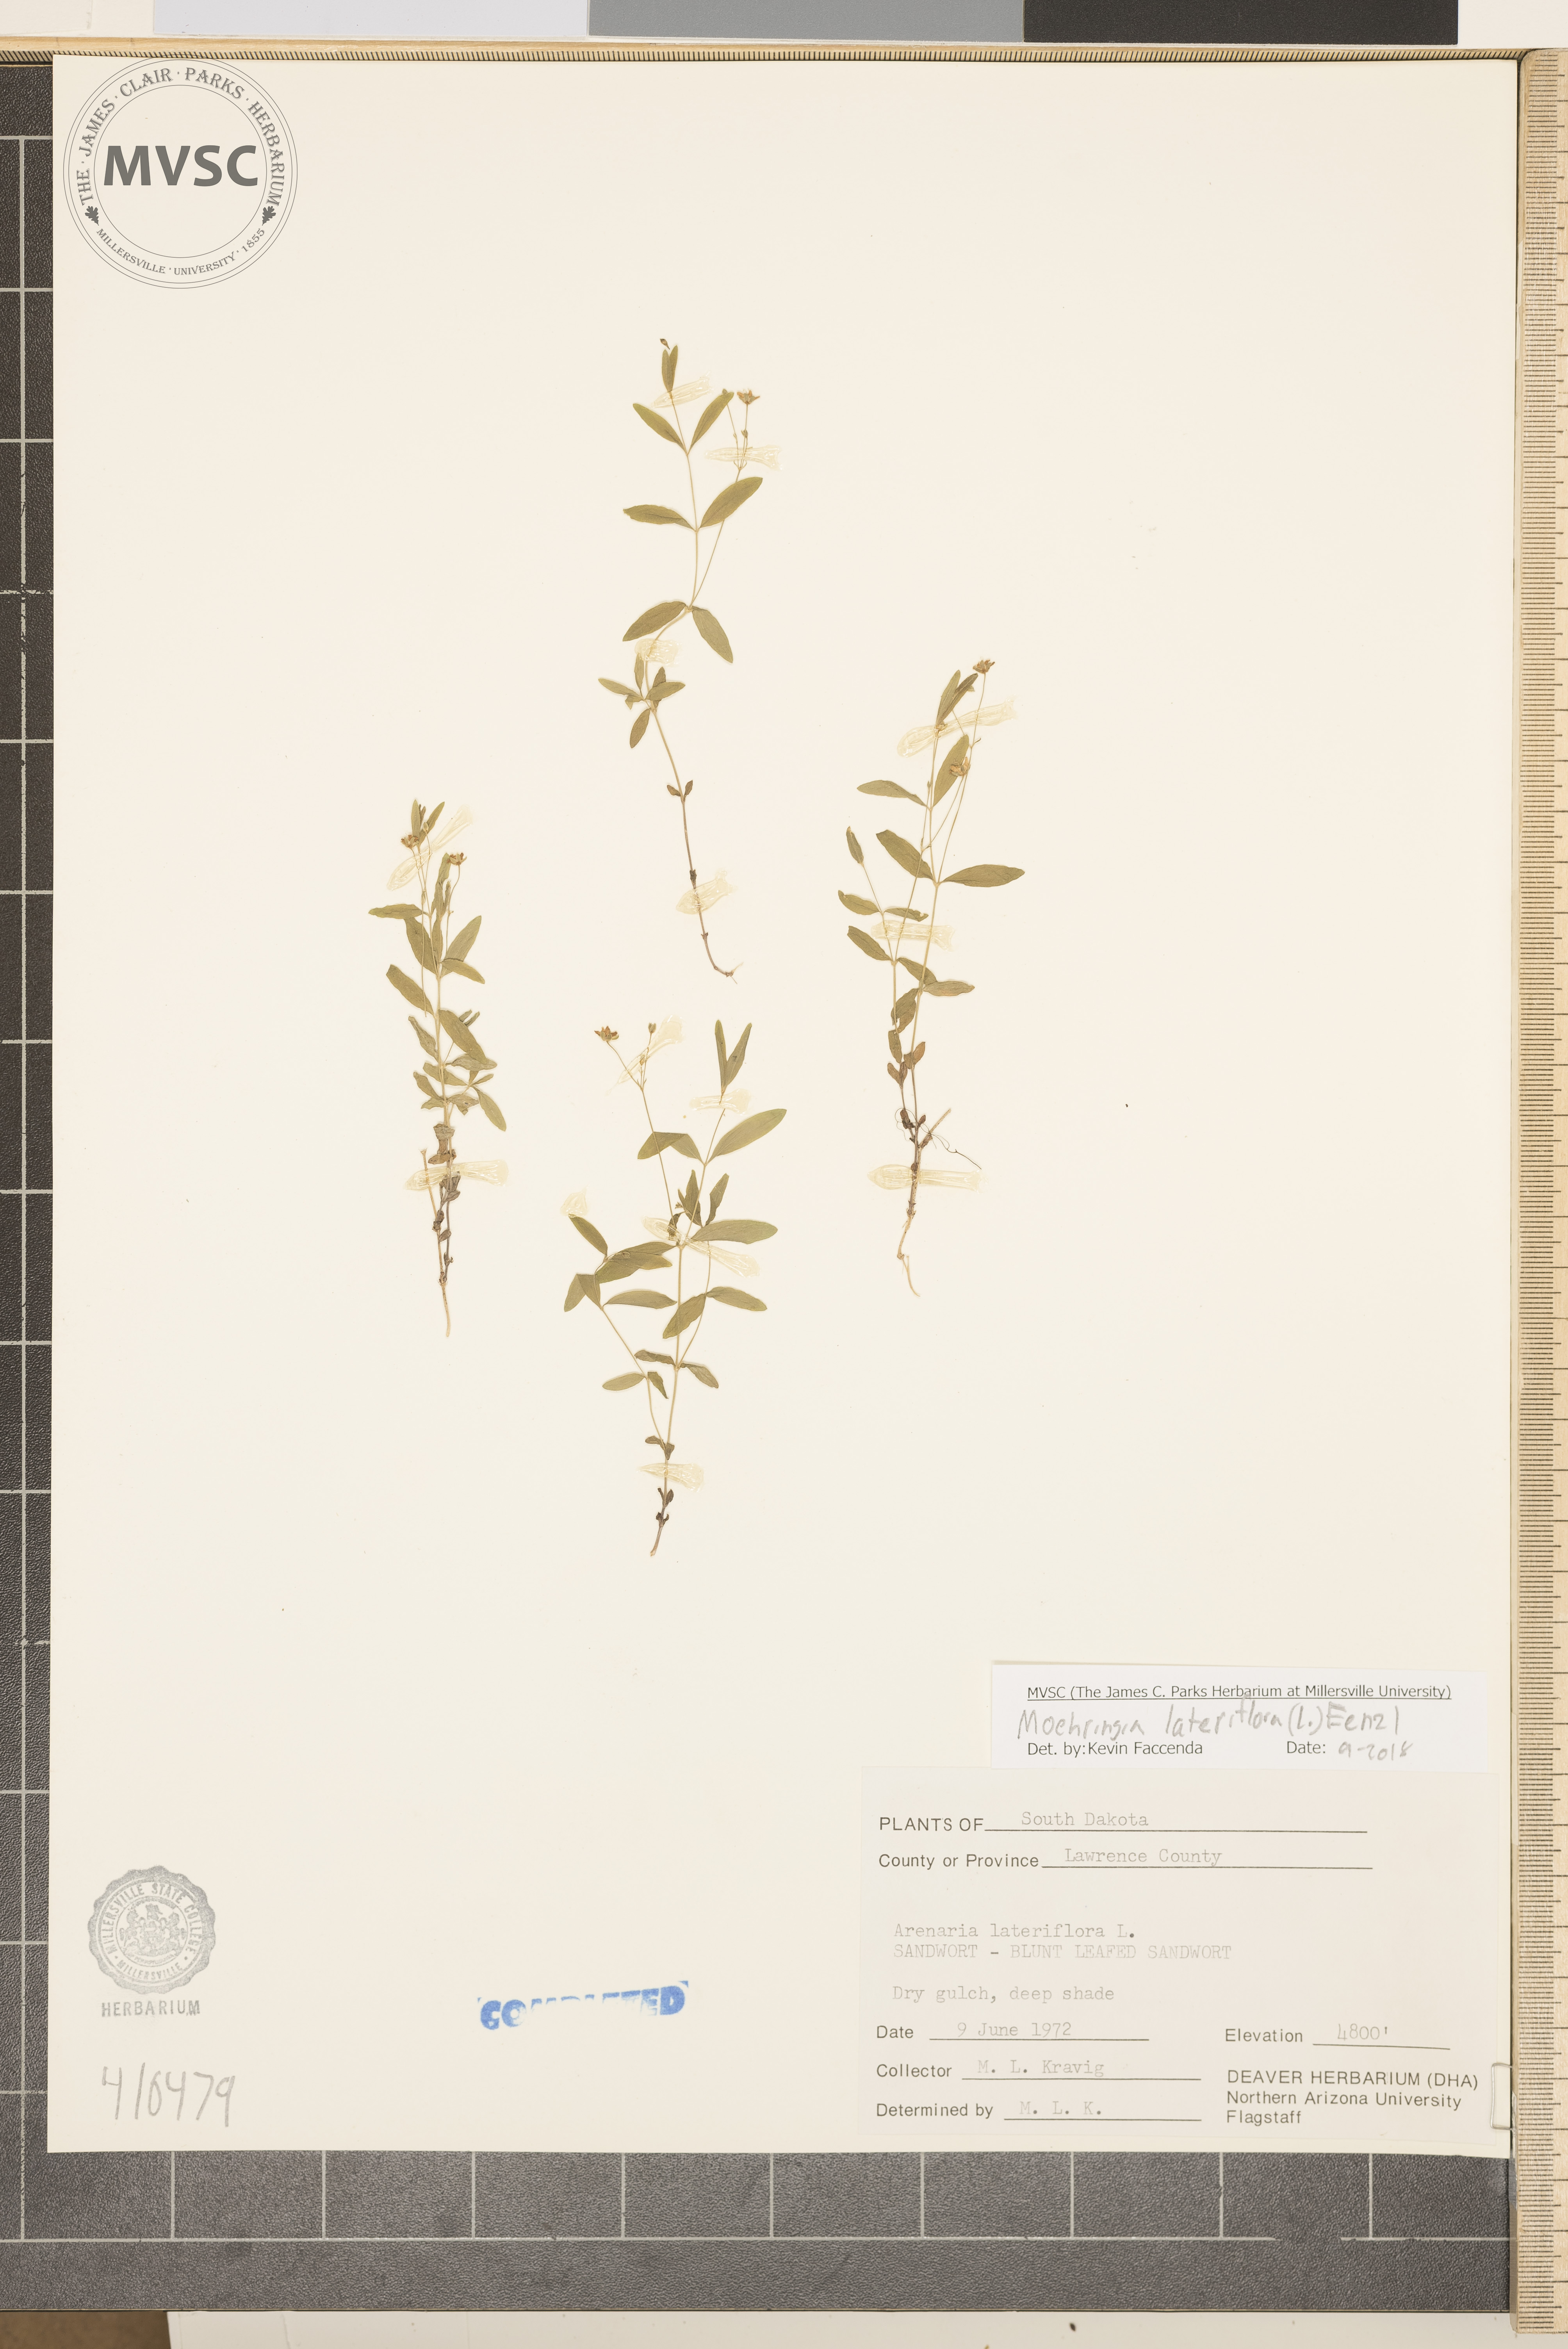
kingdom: Plantae
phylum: Tracheophyta
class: Magnoliopsida
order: Caryophyllales
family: Caryophyllaceae
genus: Moehringia
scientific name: Moehringia lateriflora
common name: Blunt-leaved sandwort
